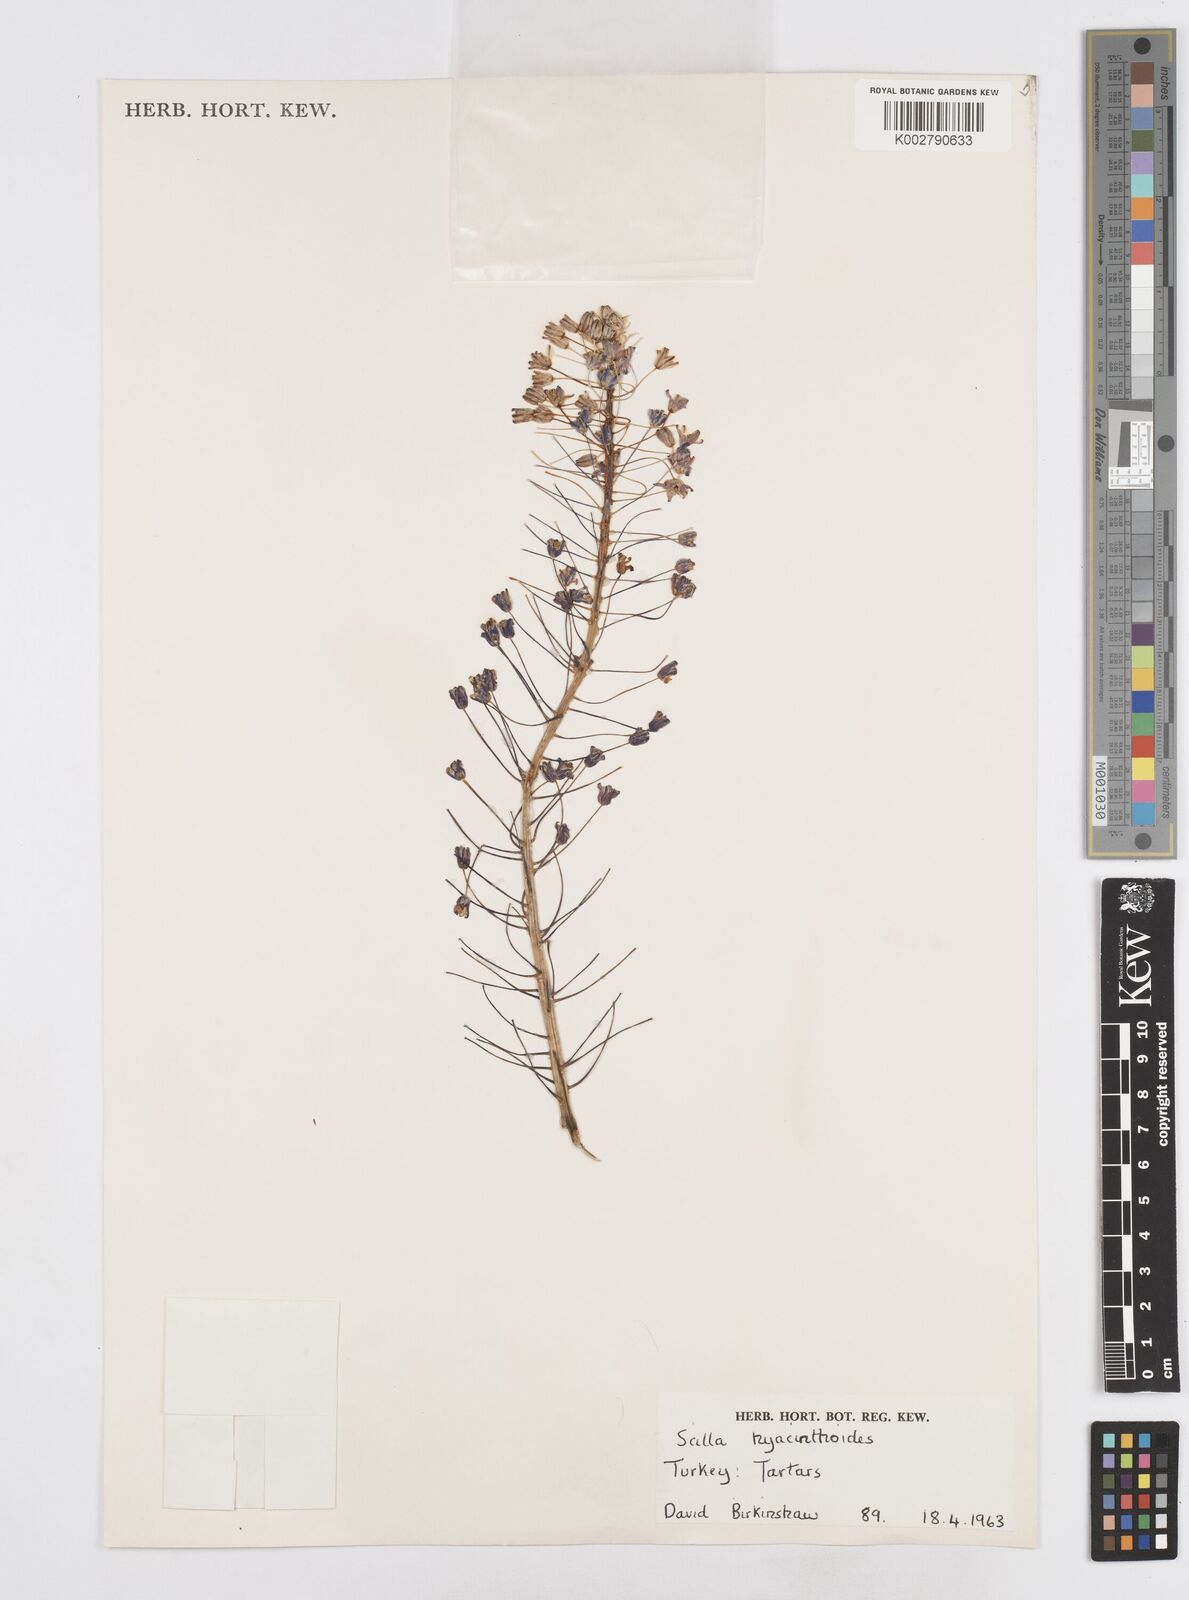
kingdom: Plantae
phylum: Tracheophyta
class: Liliopsida
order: Asparagales
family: Asparagaceae
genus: Scilla
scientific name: Scilla hyacinthoides
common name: Scilla
